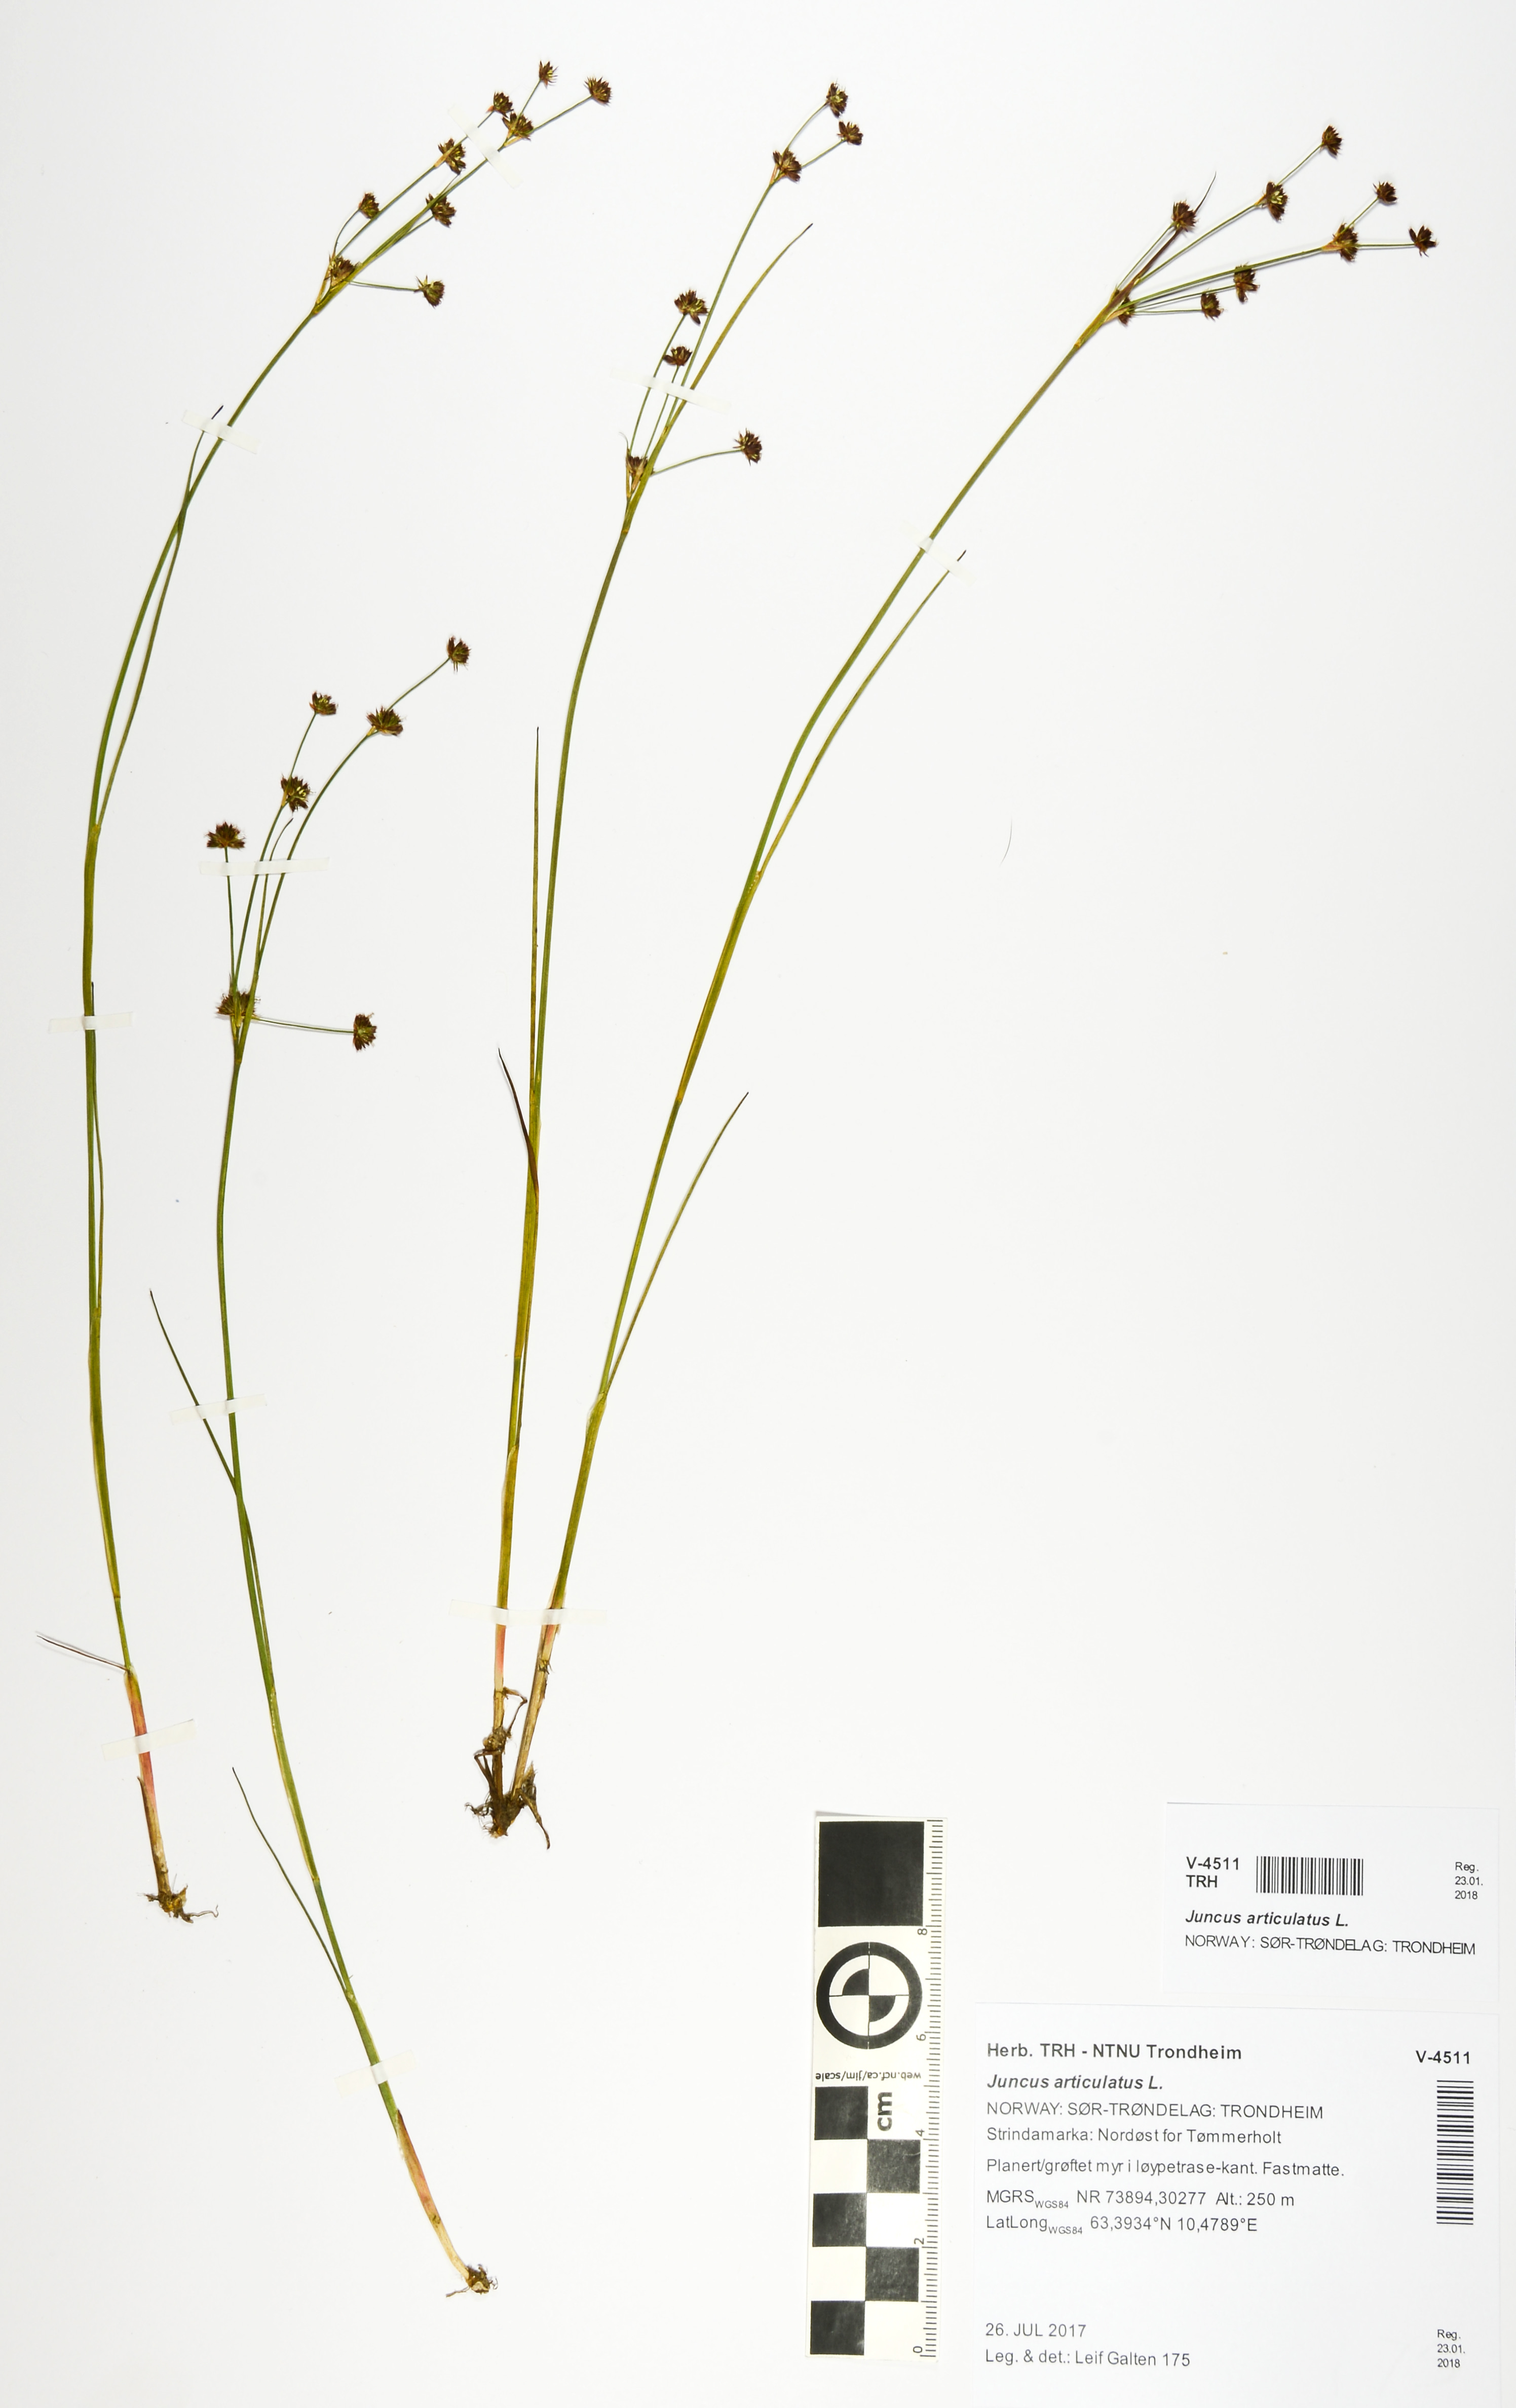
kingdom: Plantae
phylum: Tracheophyta
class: Liliopsida
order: Poales
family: Juncaceae
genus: Juncus
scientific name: Juncus articulatus
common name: Jointed rush
